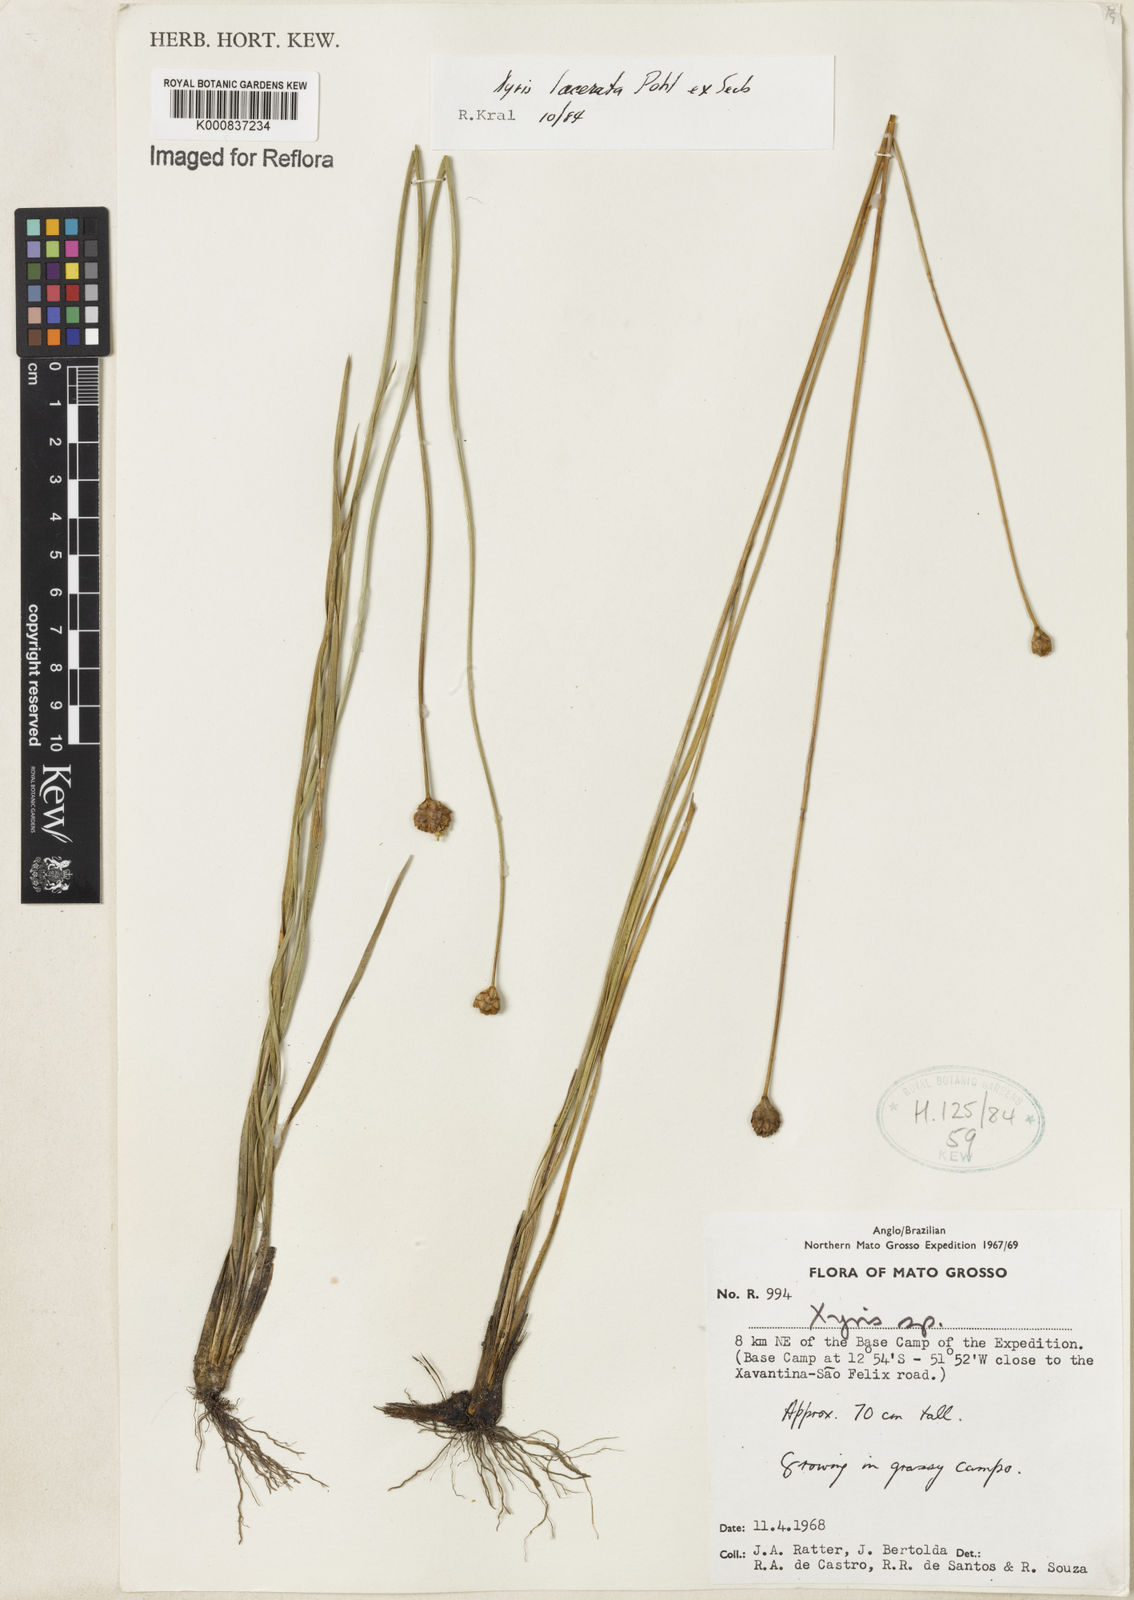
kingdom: Plantae
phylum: Tracheophyta
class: Liliopsida
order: Poales
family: Xyridaceae
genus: Xyris
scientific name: Xyris lacerata
